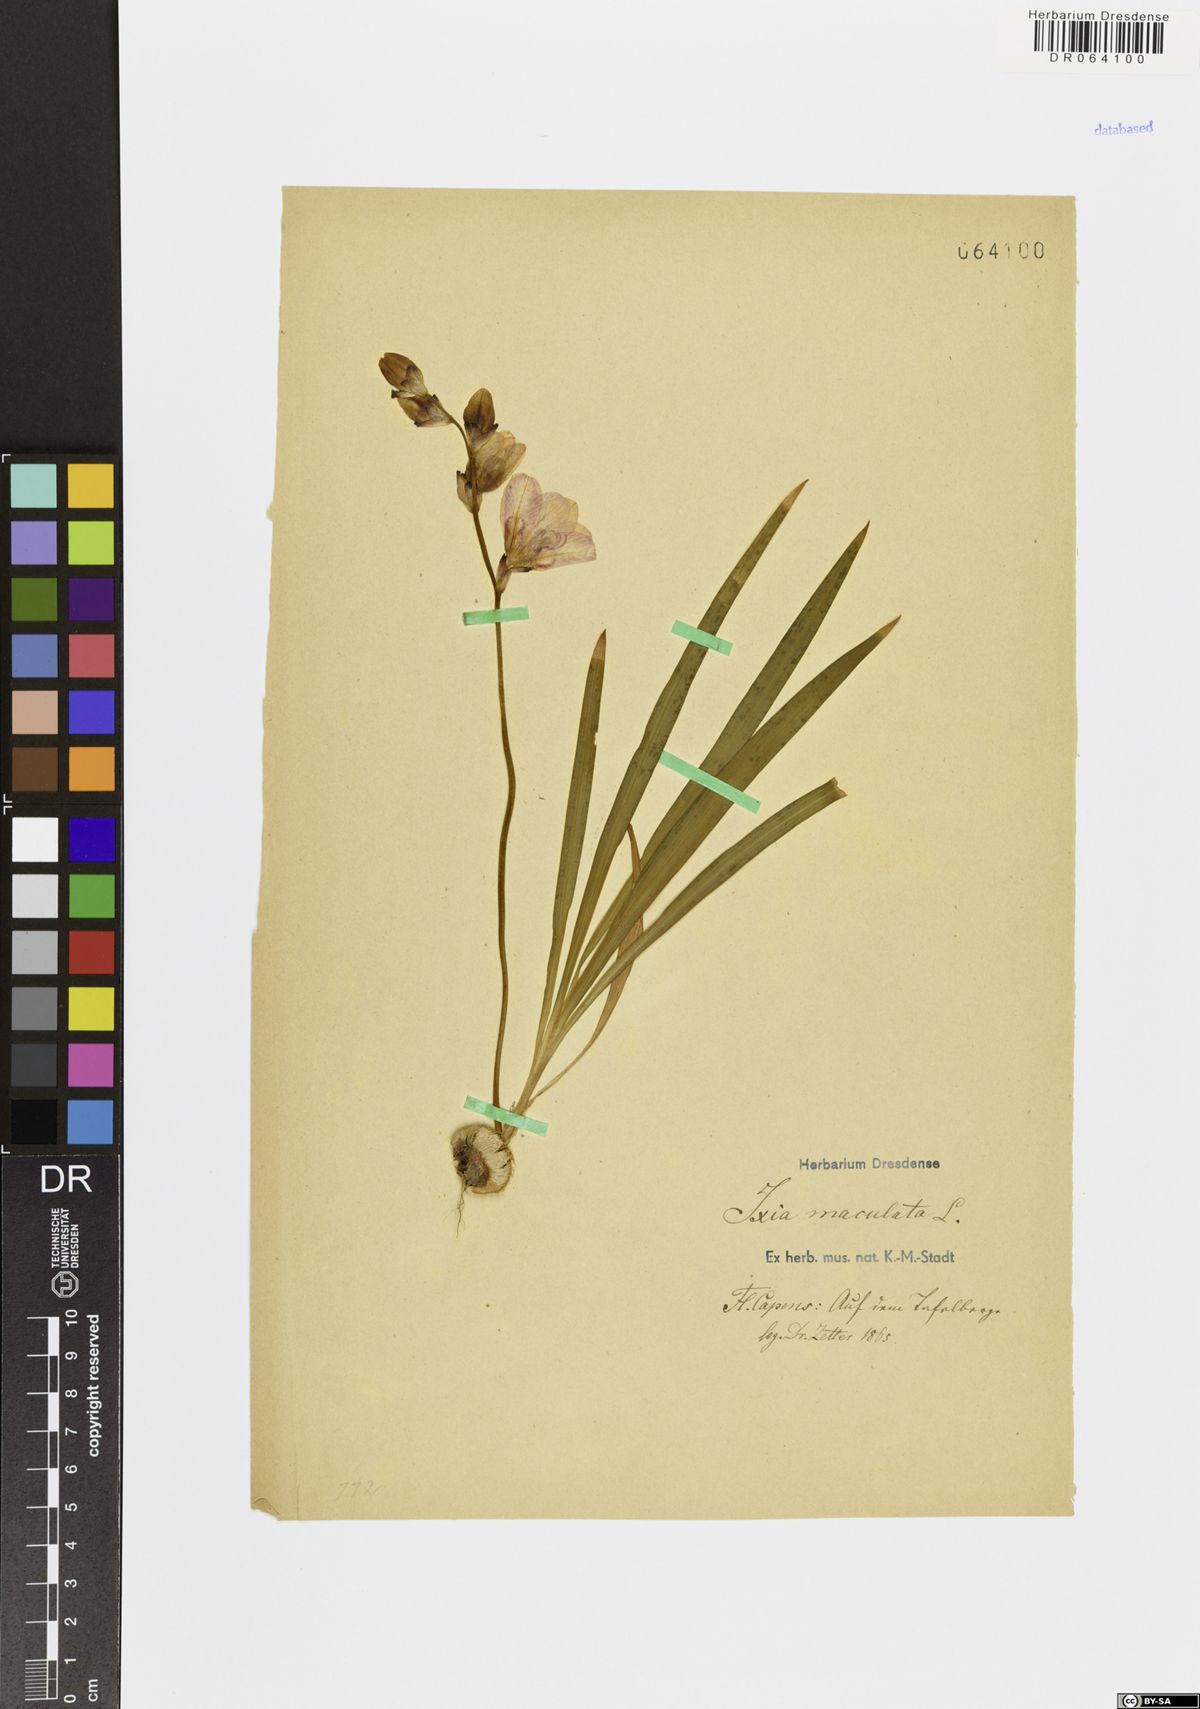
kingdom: Plantae
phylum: Tracheophyta
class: Liliopsida
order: Asparagales
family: Iridaceae
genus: Ixia
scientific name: Ixia maculata
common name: Spotted african cornlily
